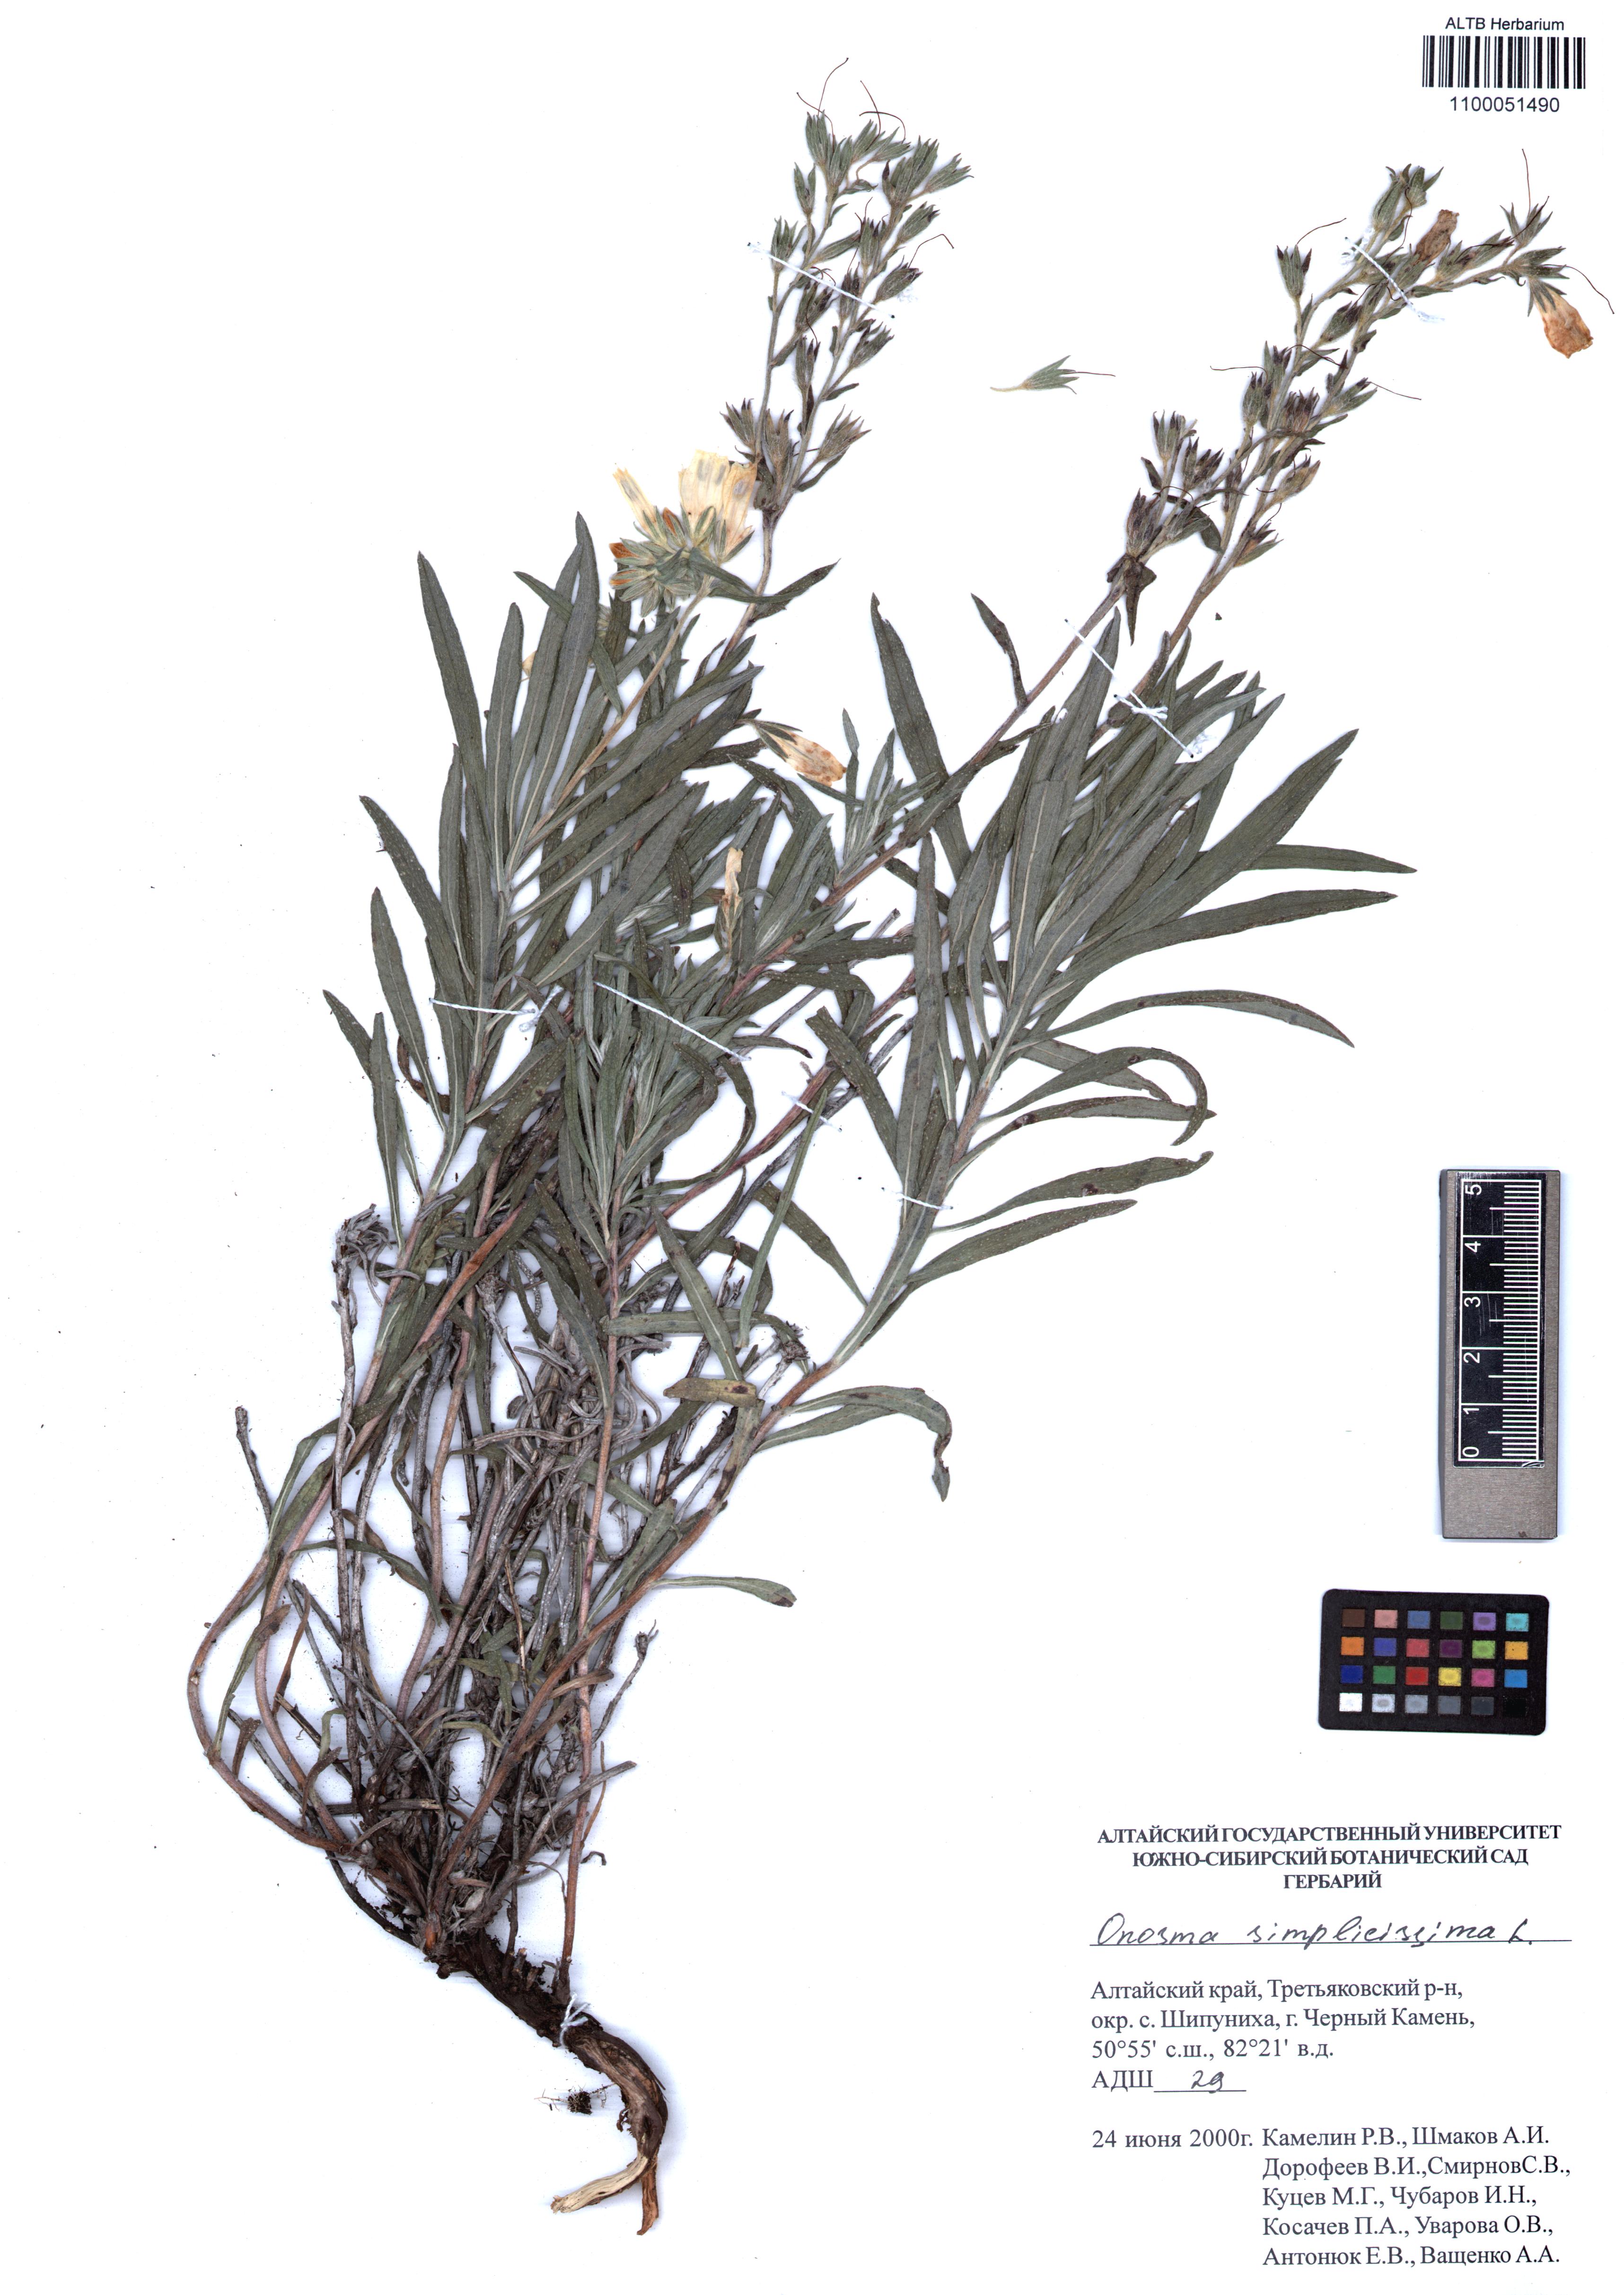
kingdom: Plantae
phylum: Tracheophyta
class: Magnoliopsida
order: Boraginales
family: Boraginaceae
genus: Onosma
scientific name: Onosma simplicissima
